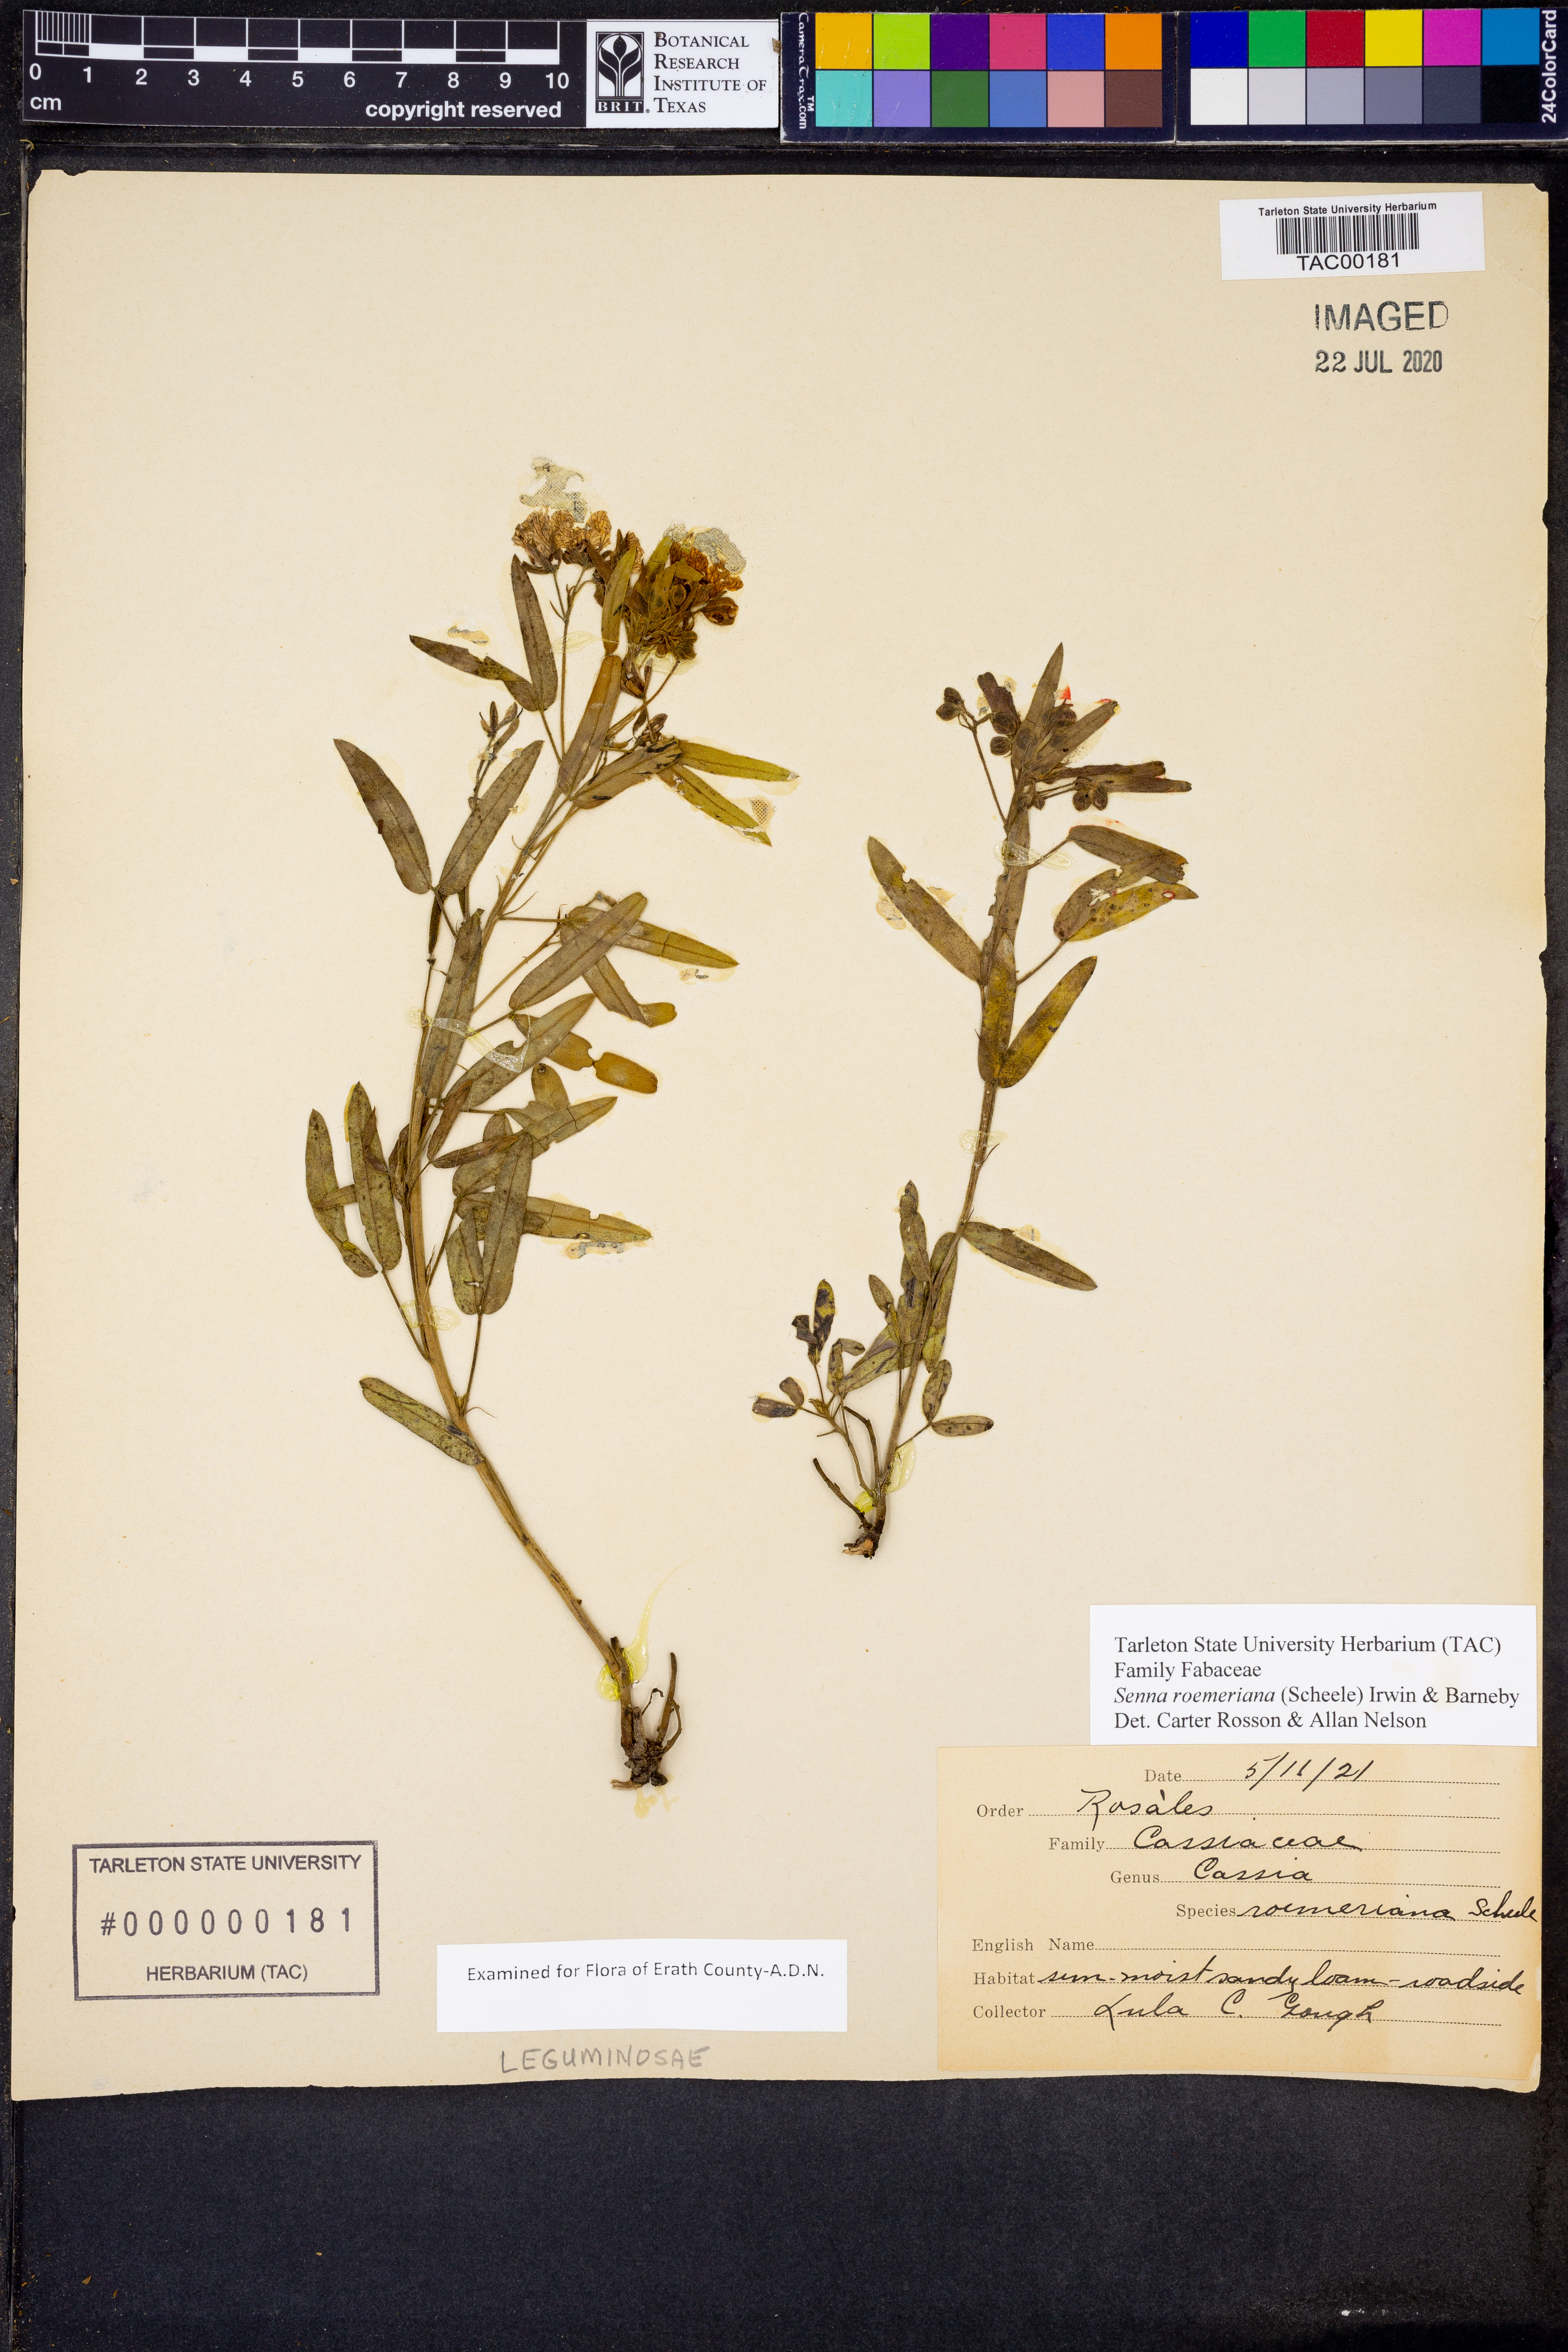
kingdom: Plantae
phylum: Tracheophyta
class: Magnoliopsida
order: Fabales
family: Fabaceae
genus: Senna
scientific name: Senna roemeriana
